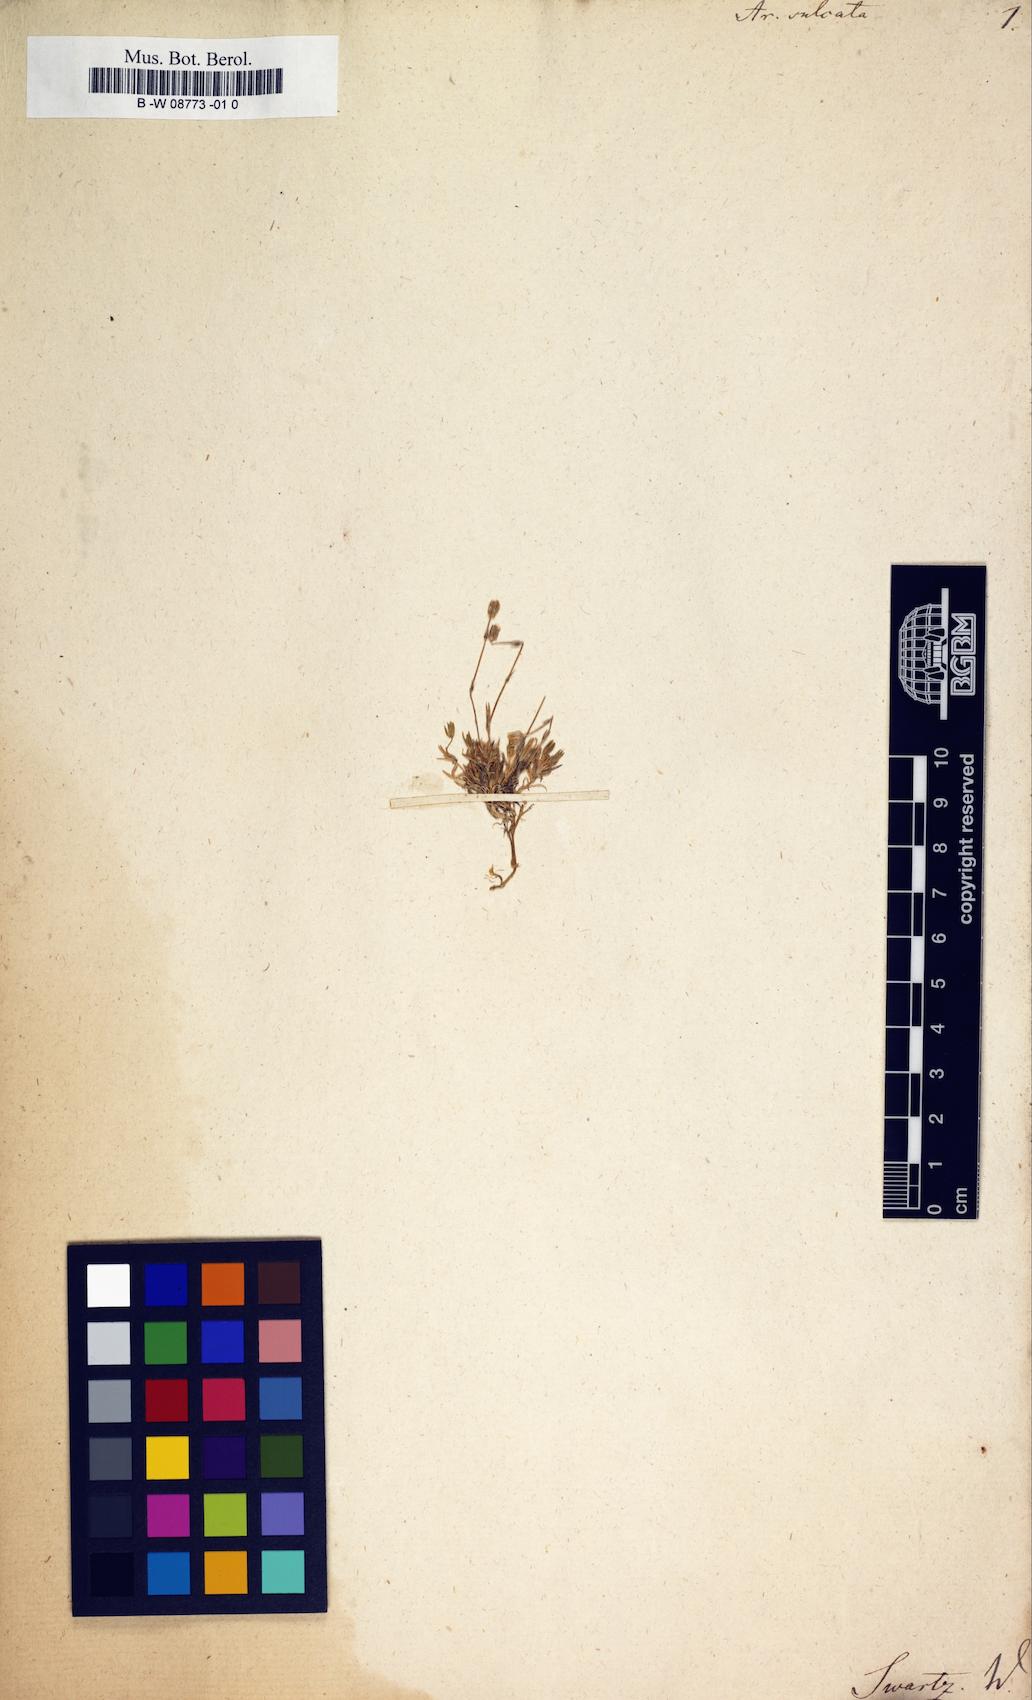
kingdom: Plantae
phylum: Tracheophyta
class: Magnoliopsida
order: Caryophyllales
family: Caryophyllaceae
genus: Sabulina
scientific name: Sabulina rubella
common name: Beautiful sandwort
